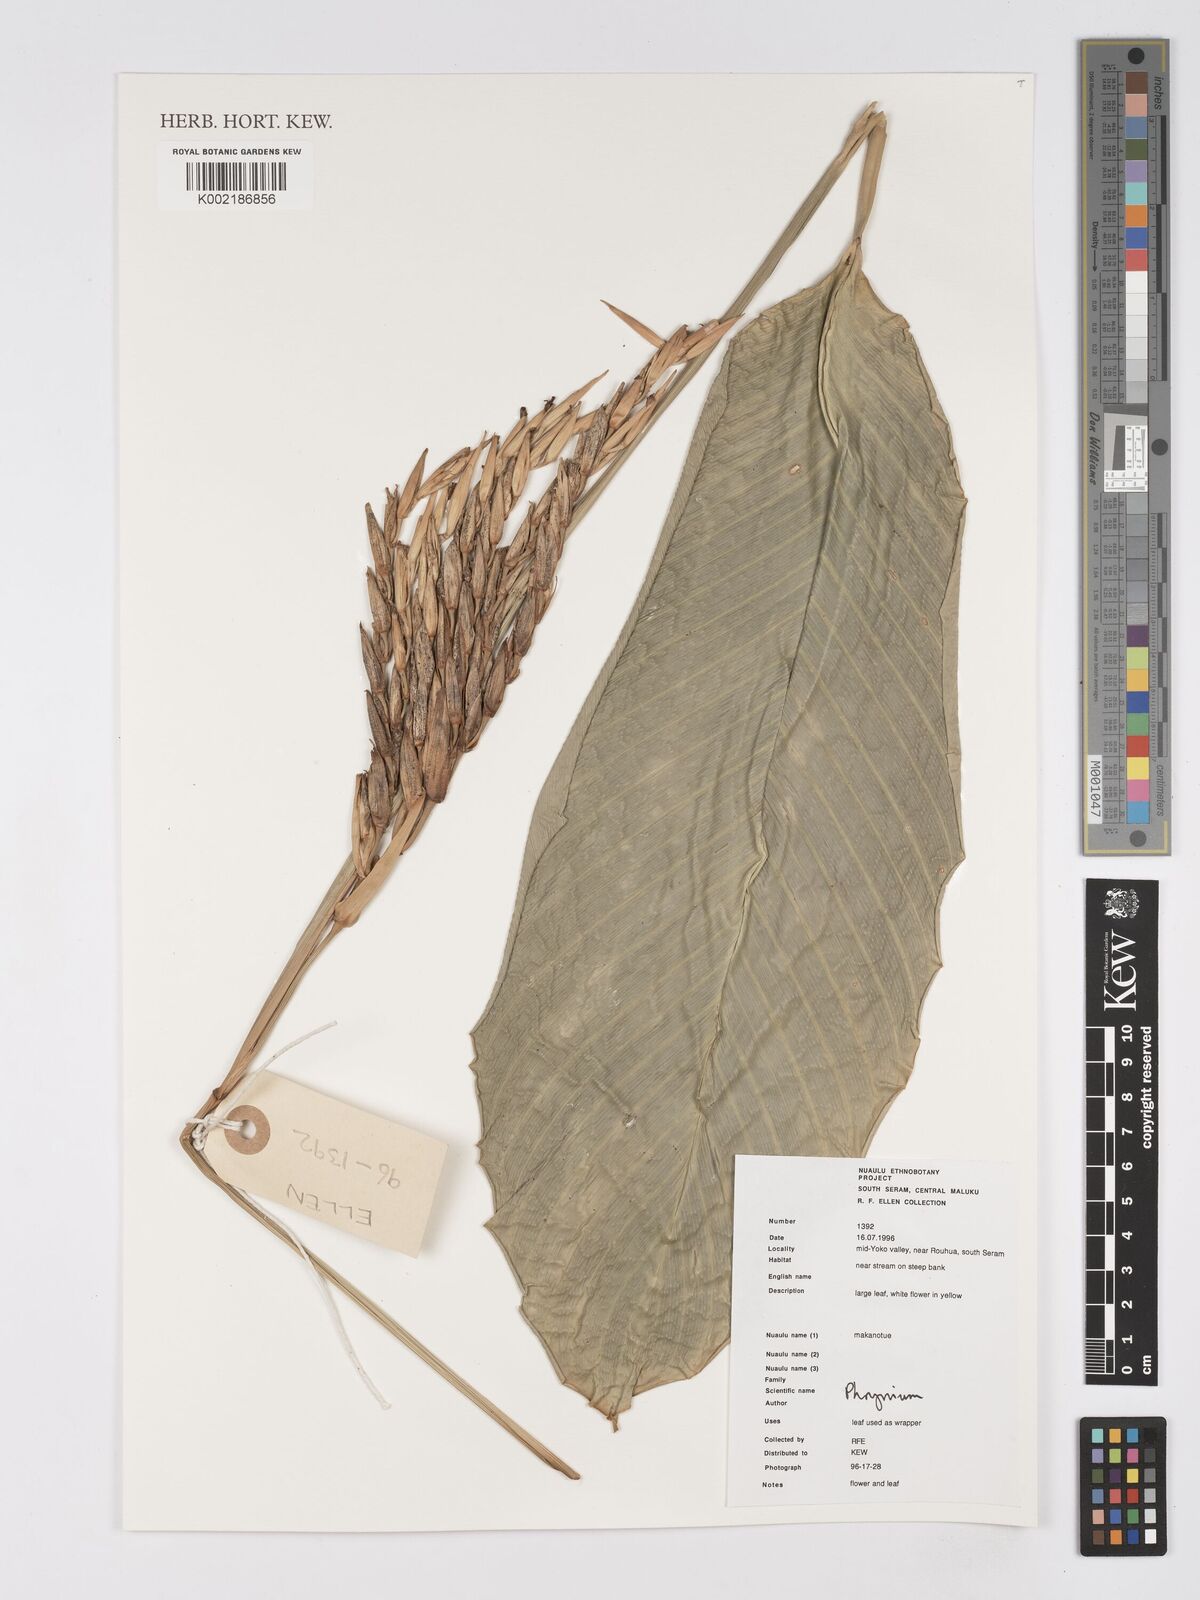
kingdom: Plantae
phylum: Tracheophyta
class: Liliopsida
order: Zingiberales
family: Marantaceae
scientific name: Marantaceae
